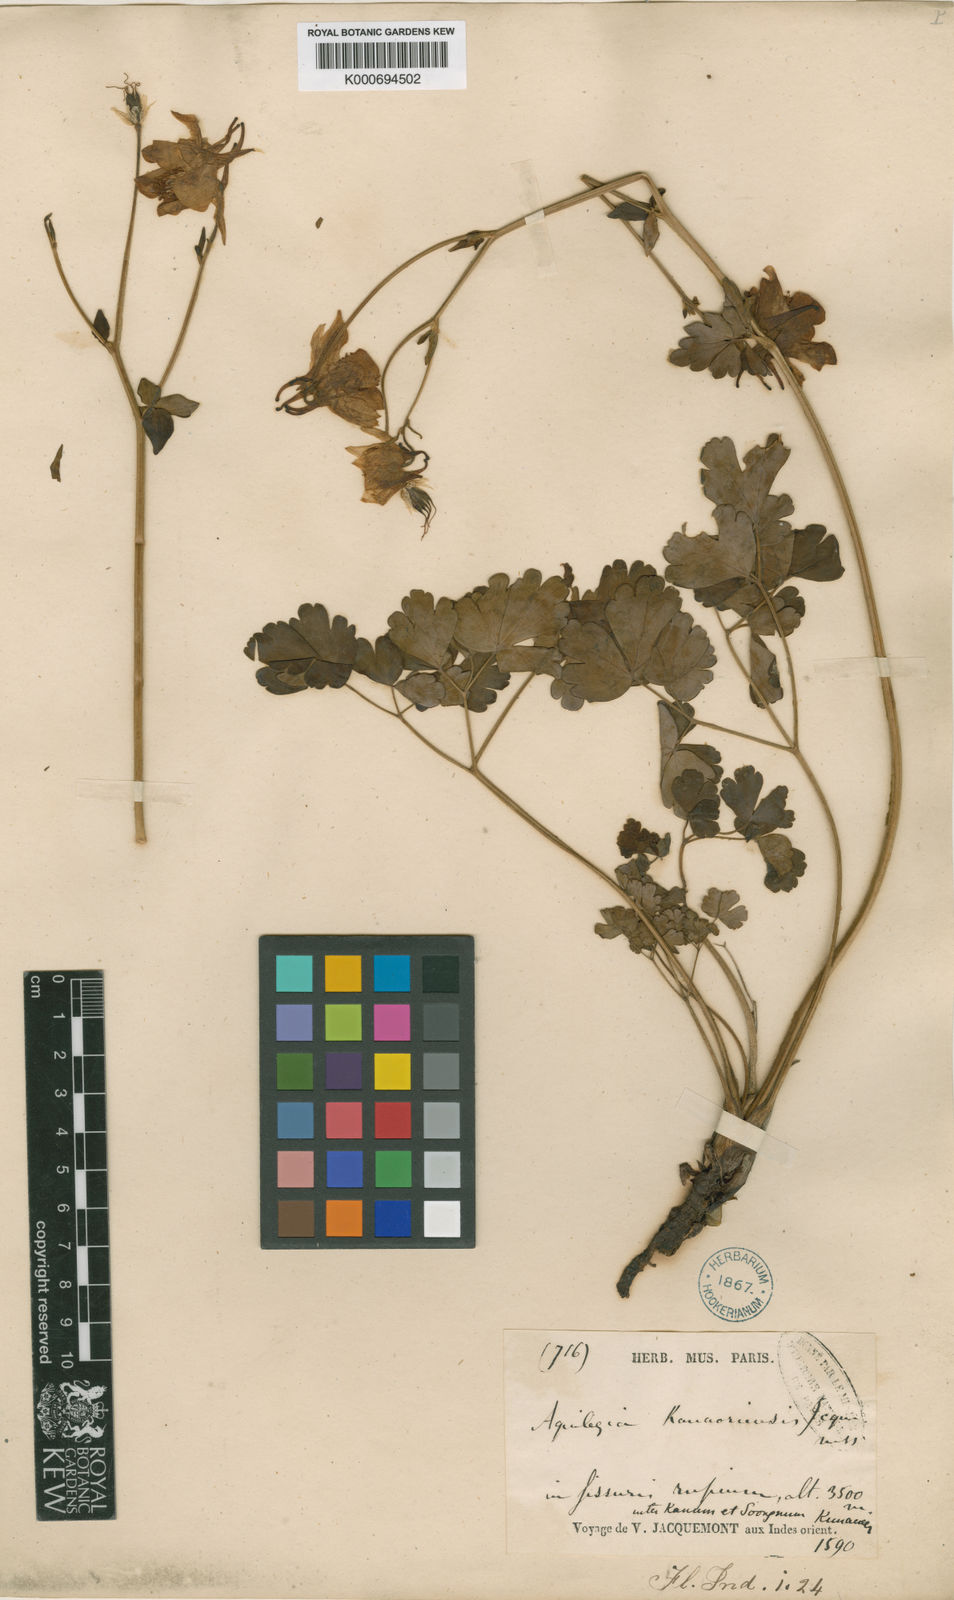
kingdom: Plantae
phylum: Tracheophyta
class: Magnoliopsida
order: Ranunculales
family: Ranunculaceae
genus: Aquilegia
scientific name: Aquilegia moorcroftiana
